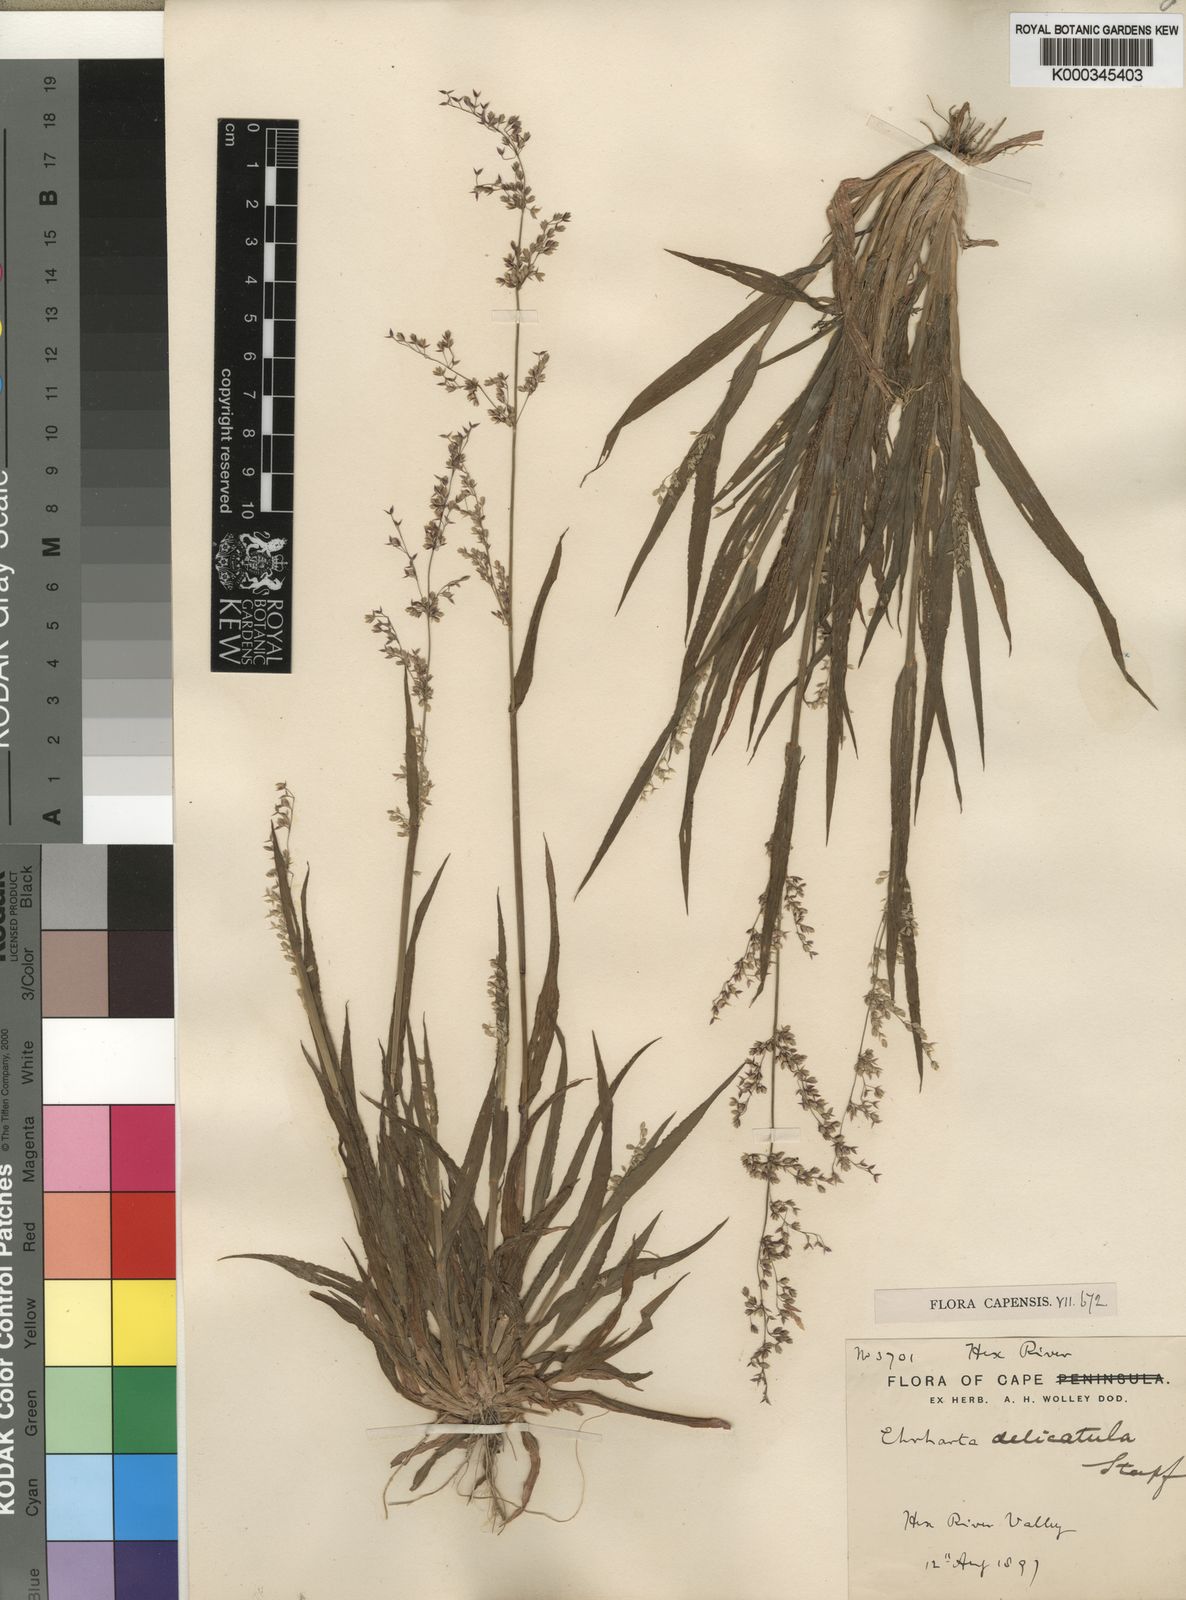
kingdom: Plantae
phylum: Tracheophyta
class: Liliopsida
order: Poales
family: Poaceae
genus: Ehrharta
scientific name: Ehrharta delicatula
